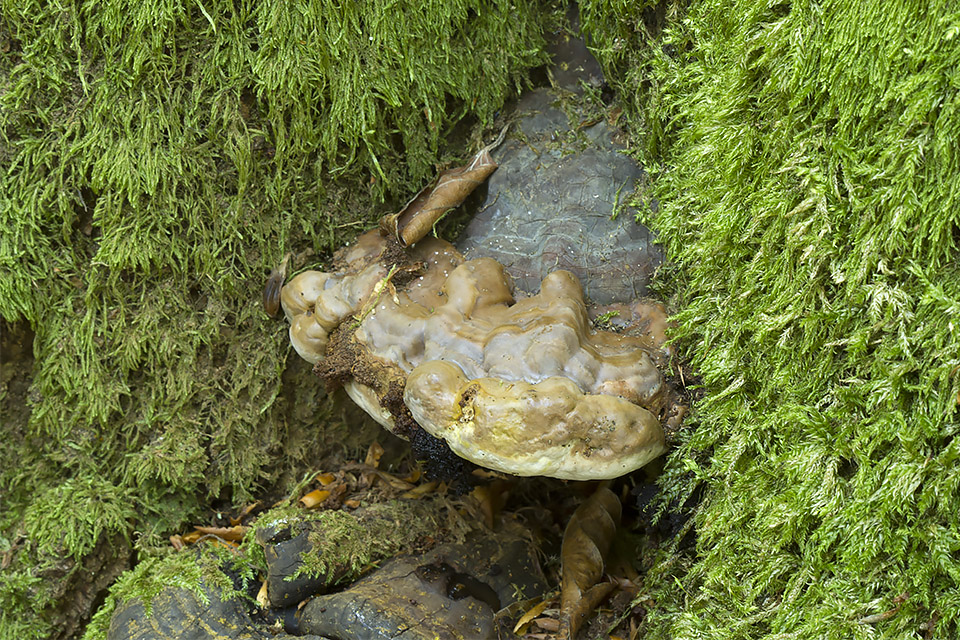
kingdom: Fungi
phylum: Basidiomycota
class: Agaricomycetes
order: Polyporales
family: Polyporaceae
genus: Ganoderma
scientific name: Ganoderma pfeifferi
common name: kobberrød lakporesvamp
